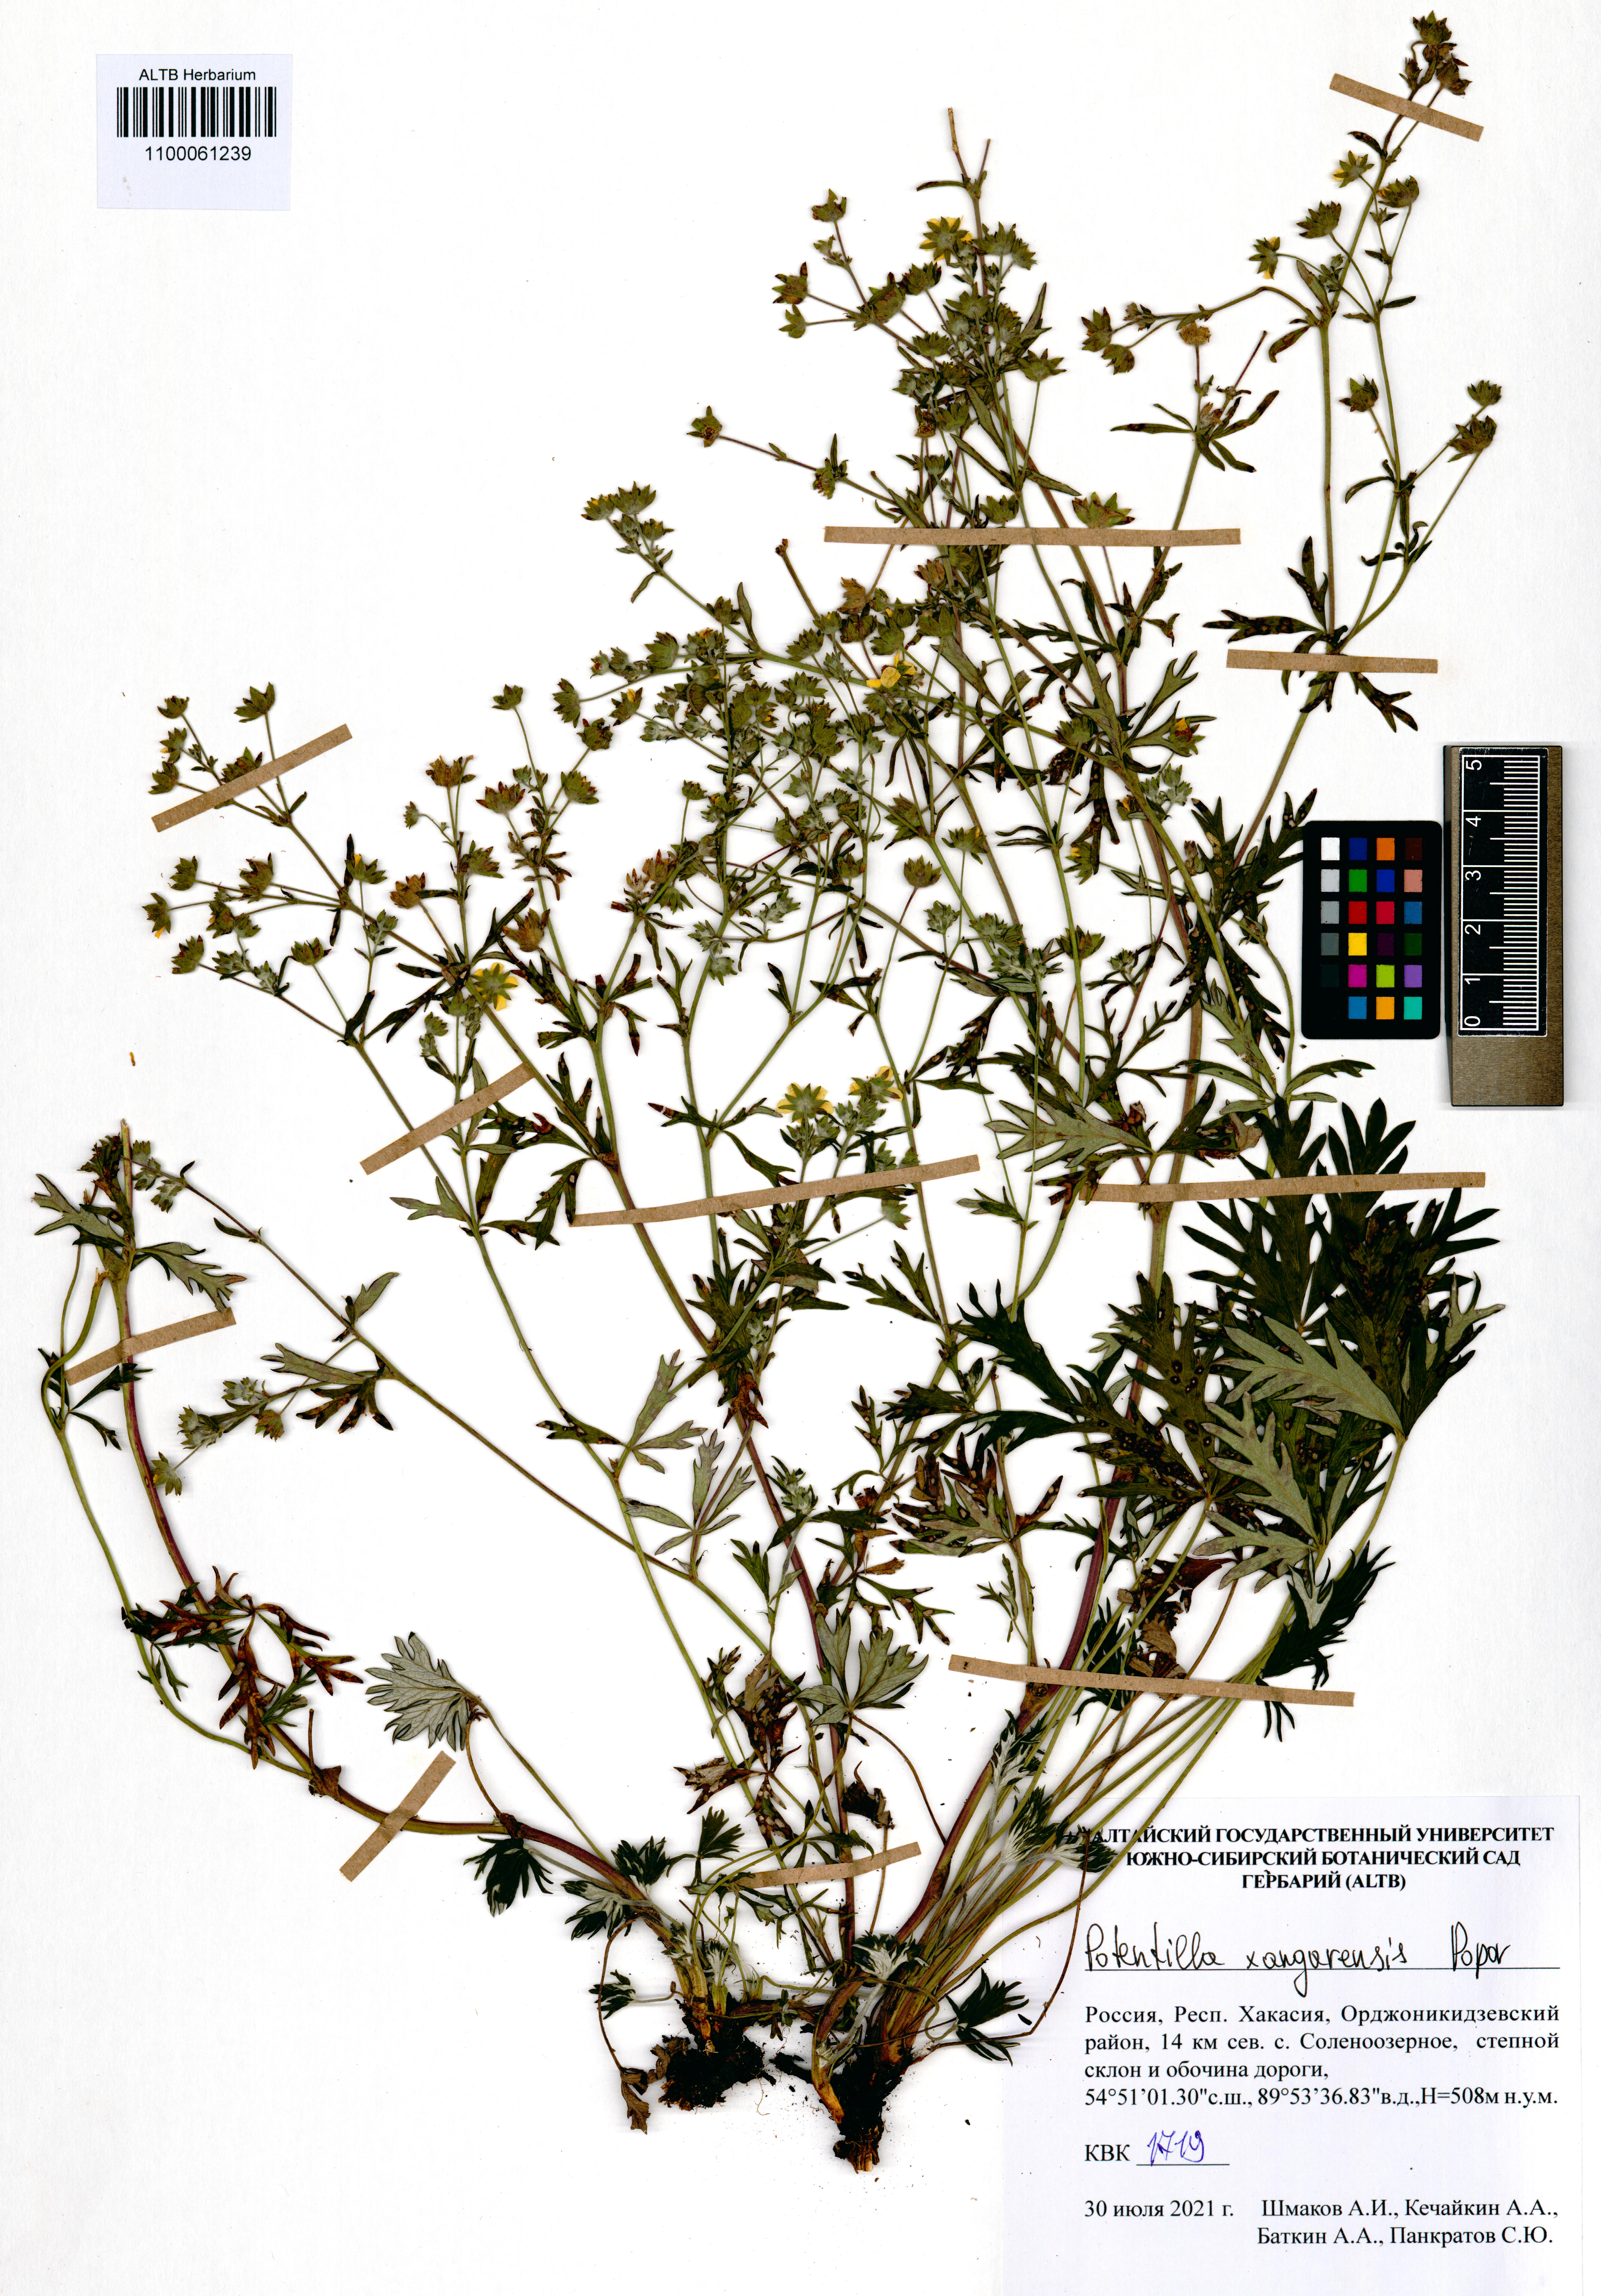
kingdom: Plantae
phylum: Tracheophyta
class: Magnoliopsida
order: Rosales
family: Rosaceae
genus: Potentilla
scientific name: Potentilla angarensis
